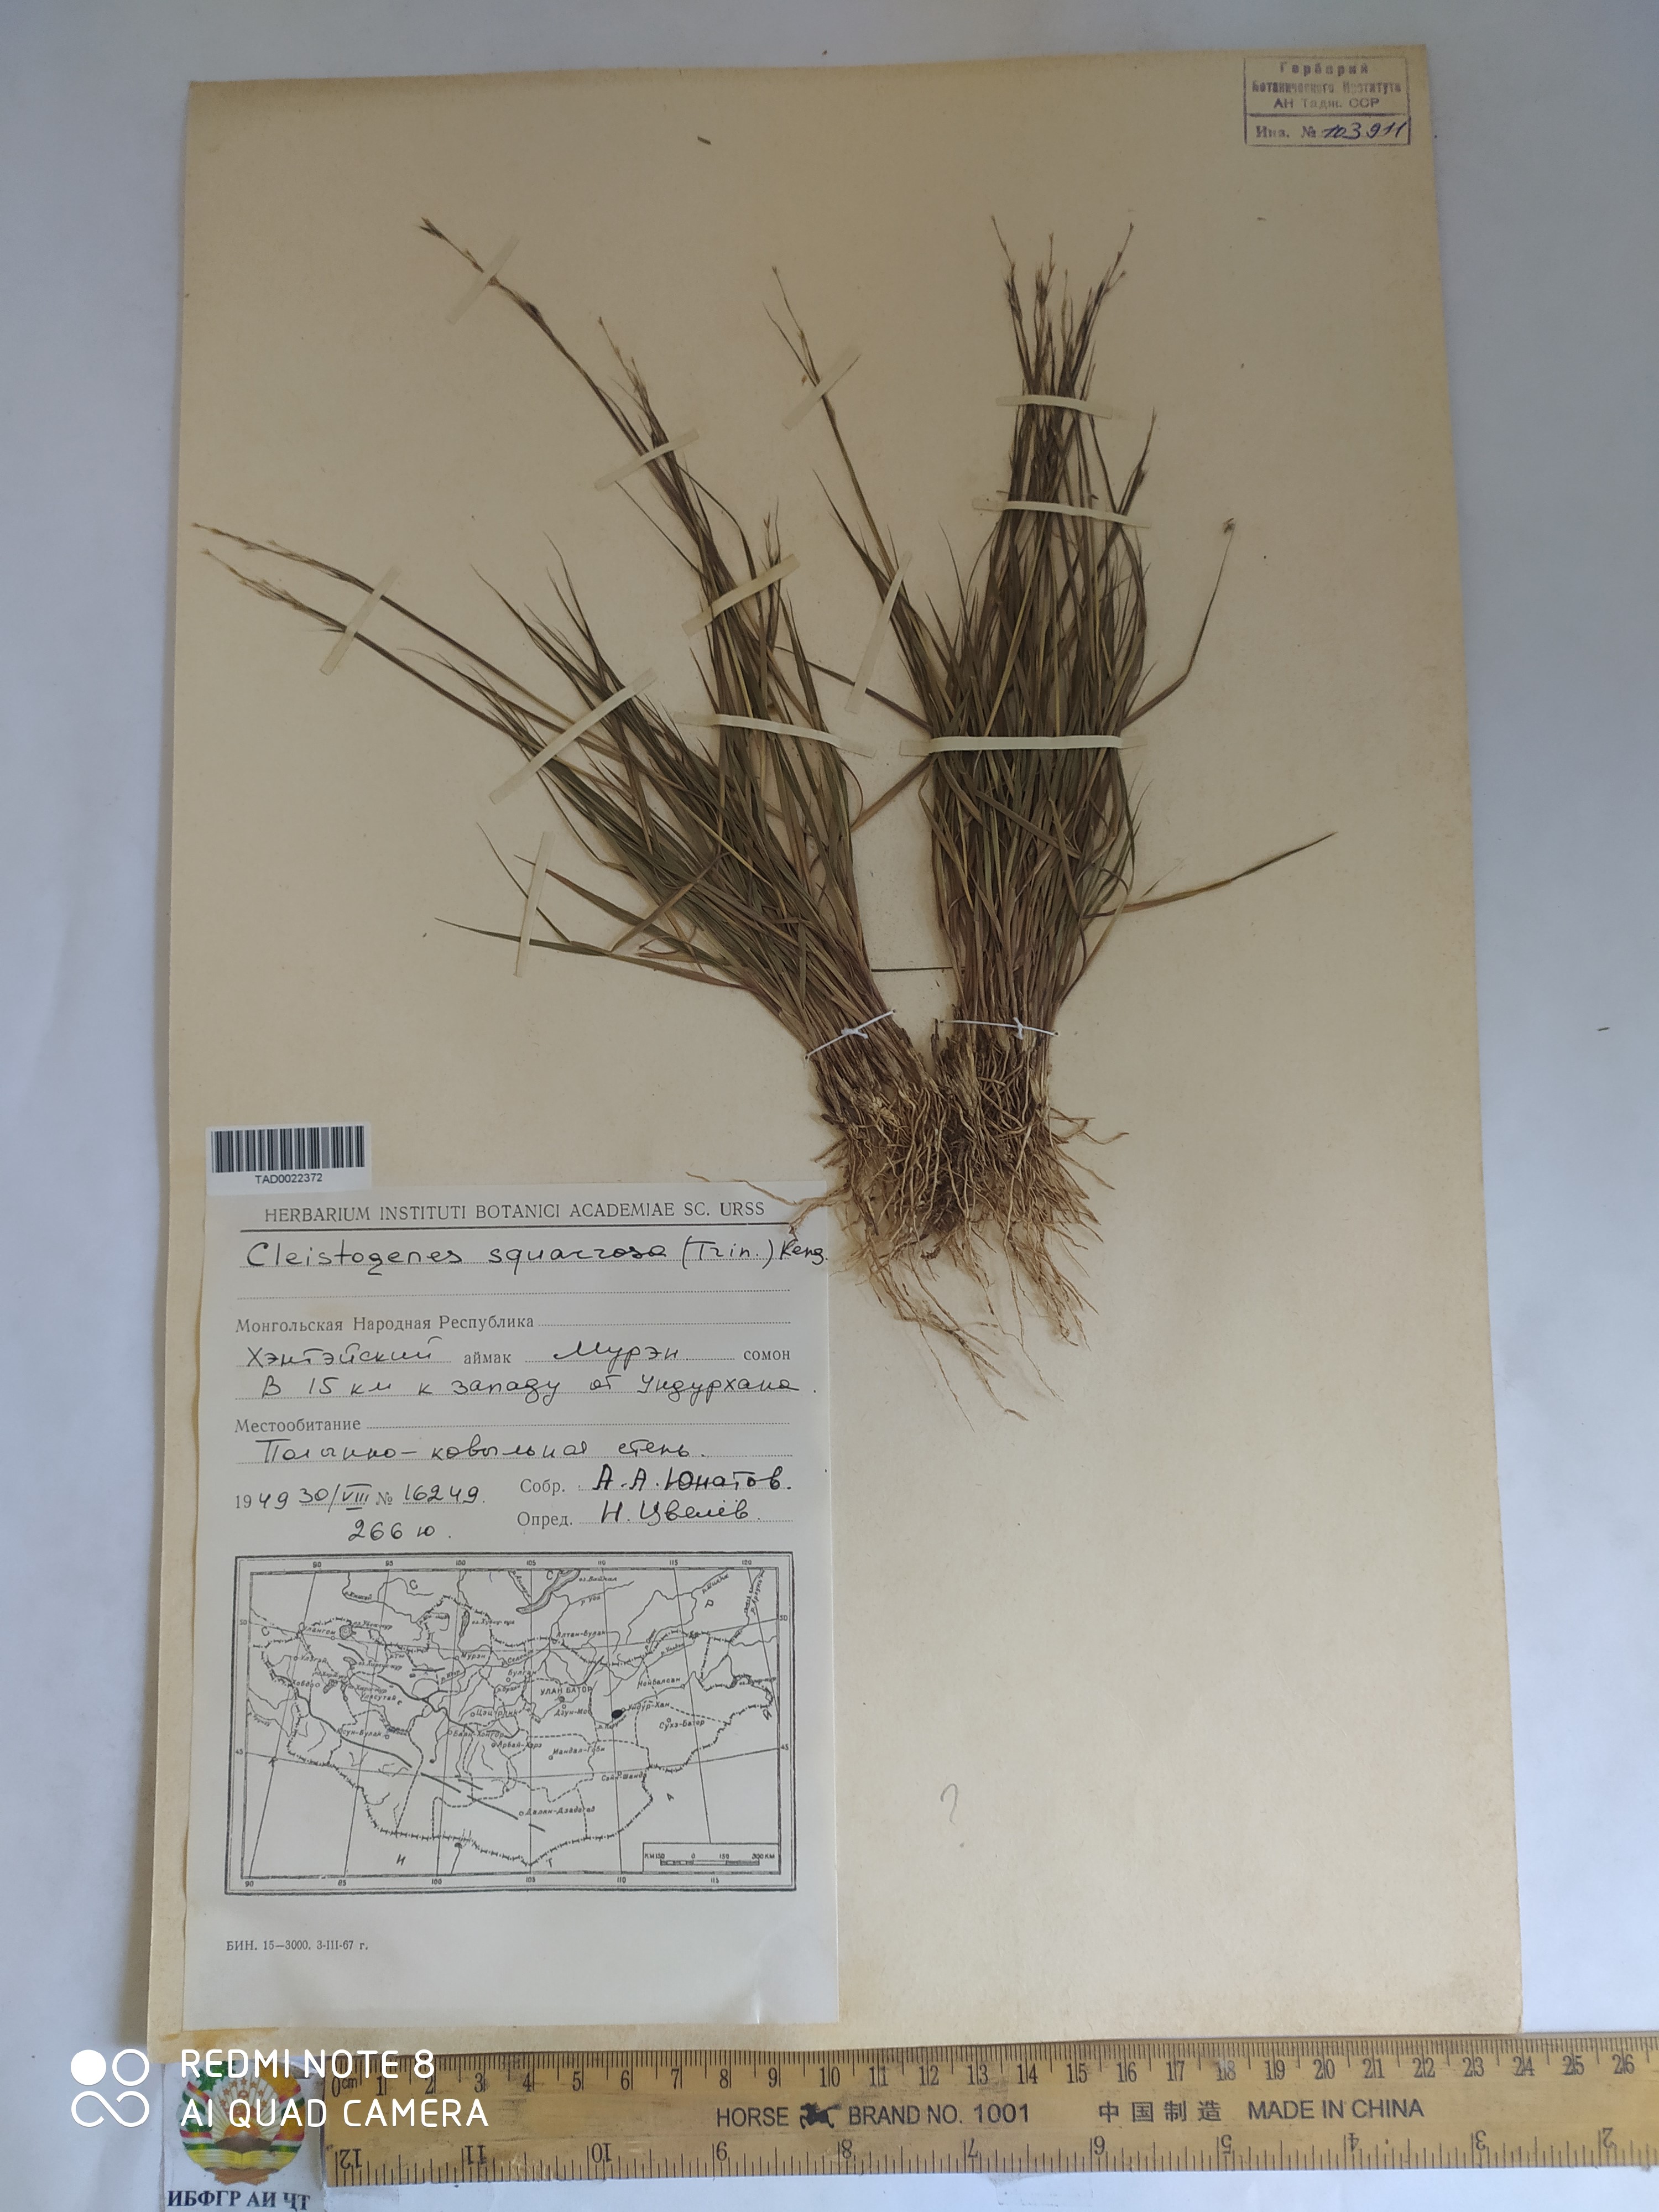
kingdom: Plantae
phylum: Tracheophyta
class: Liliopsida
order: Poales
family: Poaceae
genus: Cleistogenes
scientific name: Cleistogenes squarrosa
